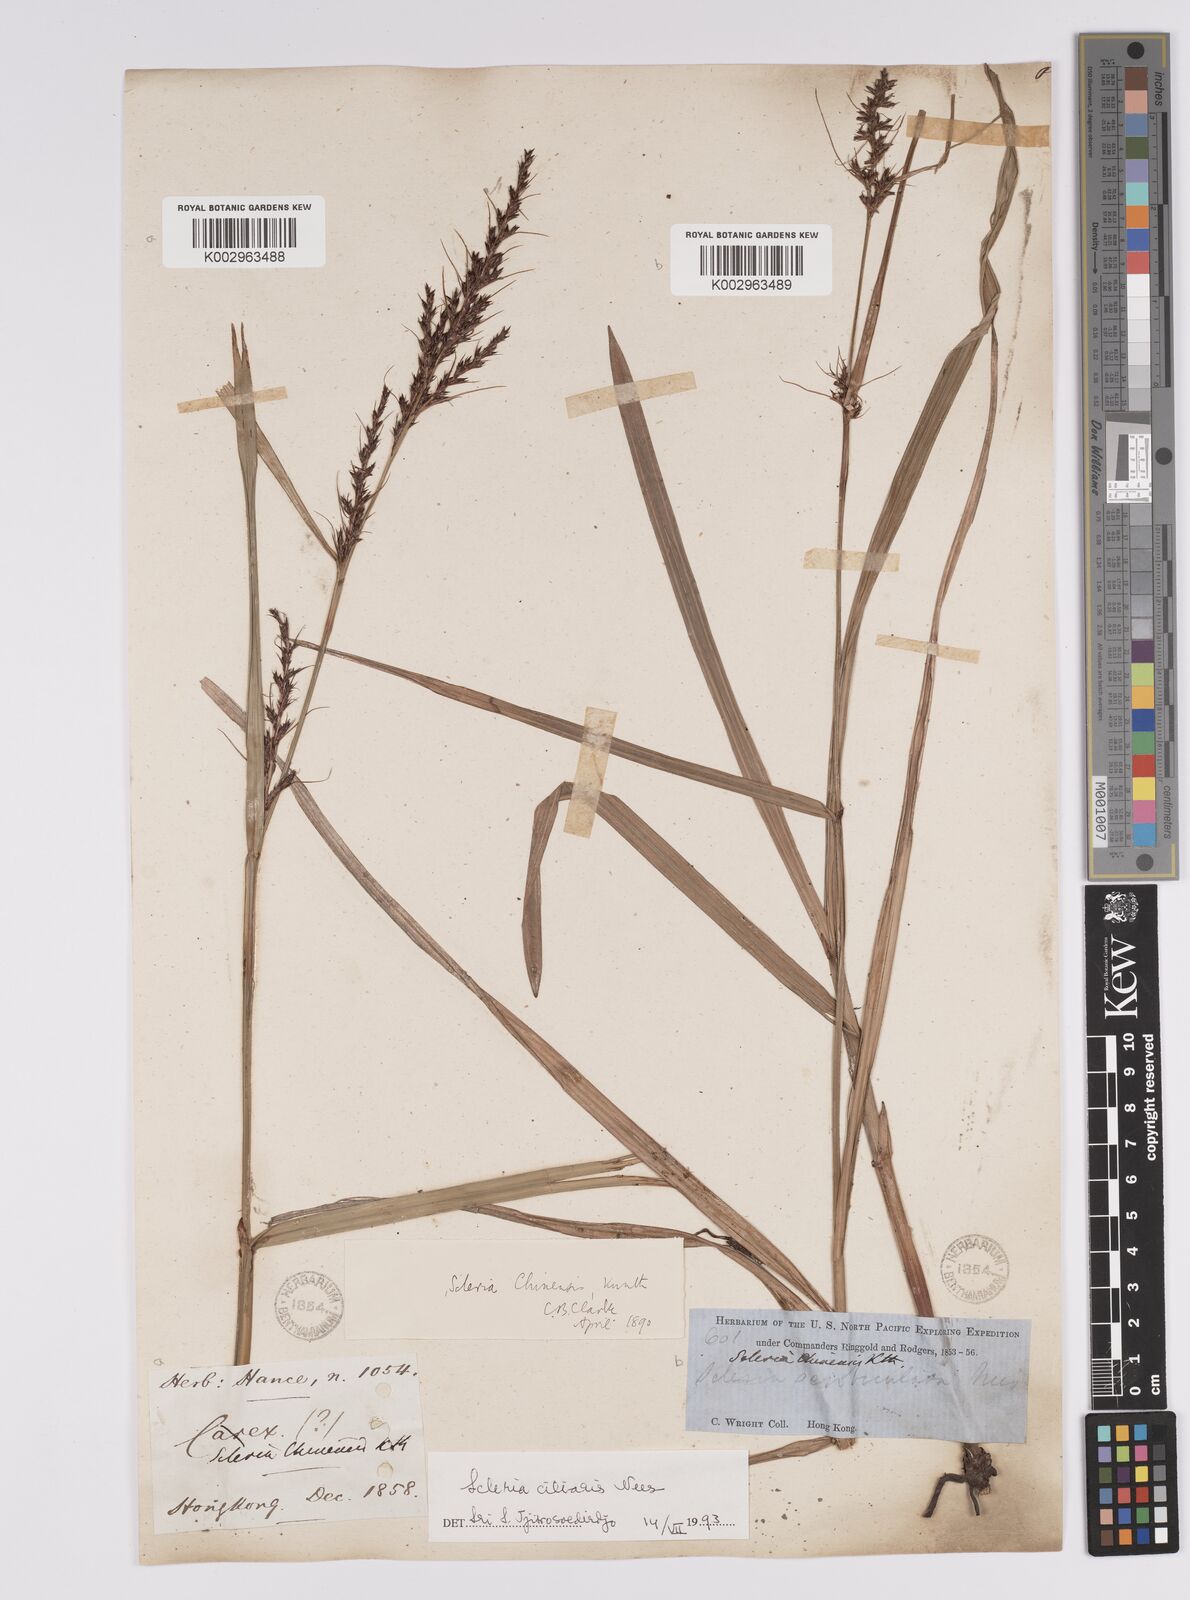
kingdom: Plantae
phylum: Tracheophyta
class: Liliopsida
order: Poales
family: Cyperaceae
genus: Scleria
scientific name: Scleria ciliaris
